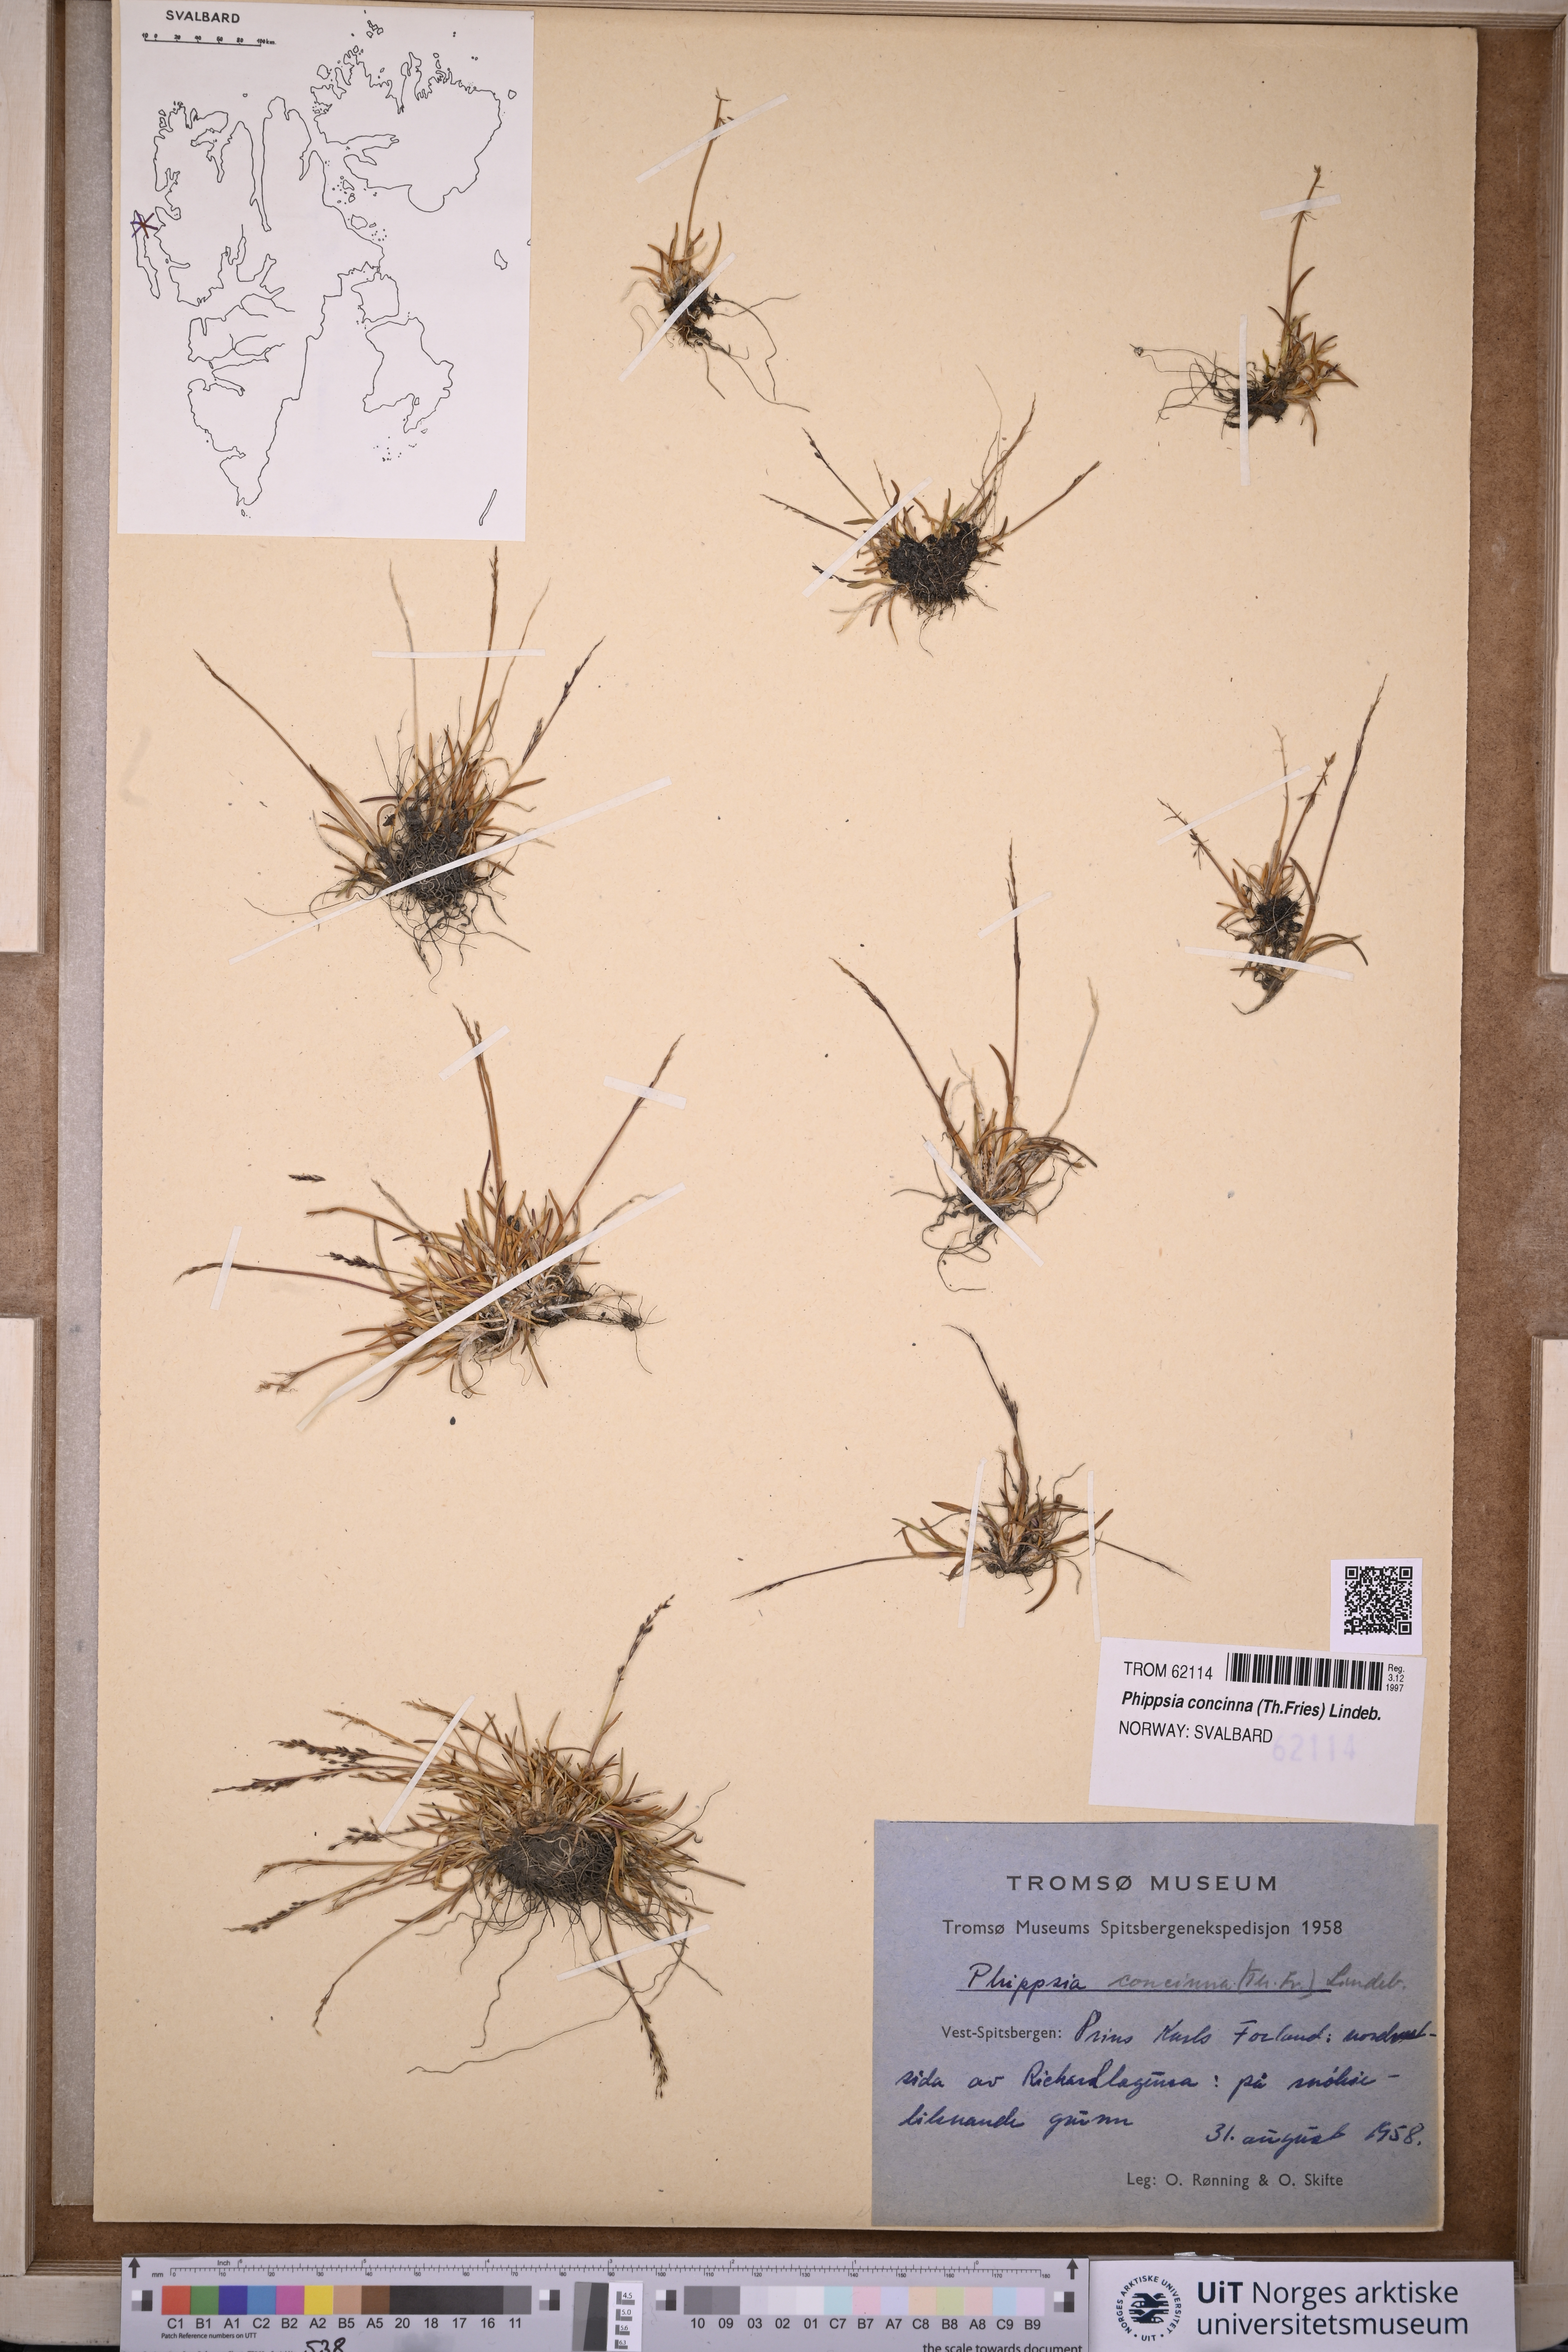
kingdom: Plantae
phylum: Tracheophyta
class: Liliopsida
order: Poales
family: Poaceae
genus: Phippsia
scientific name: Phippsia concinna
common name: Snowgrass
